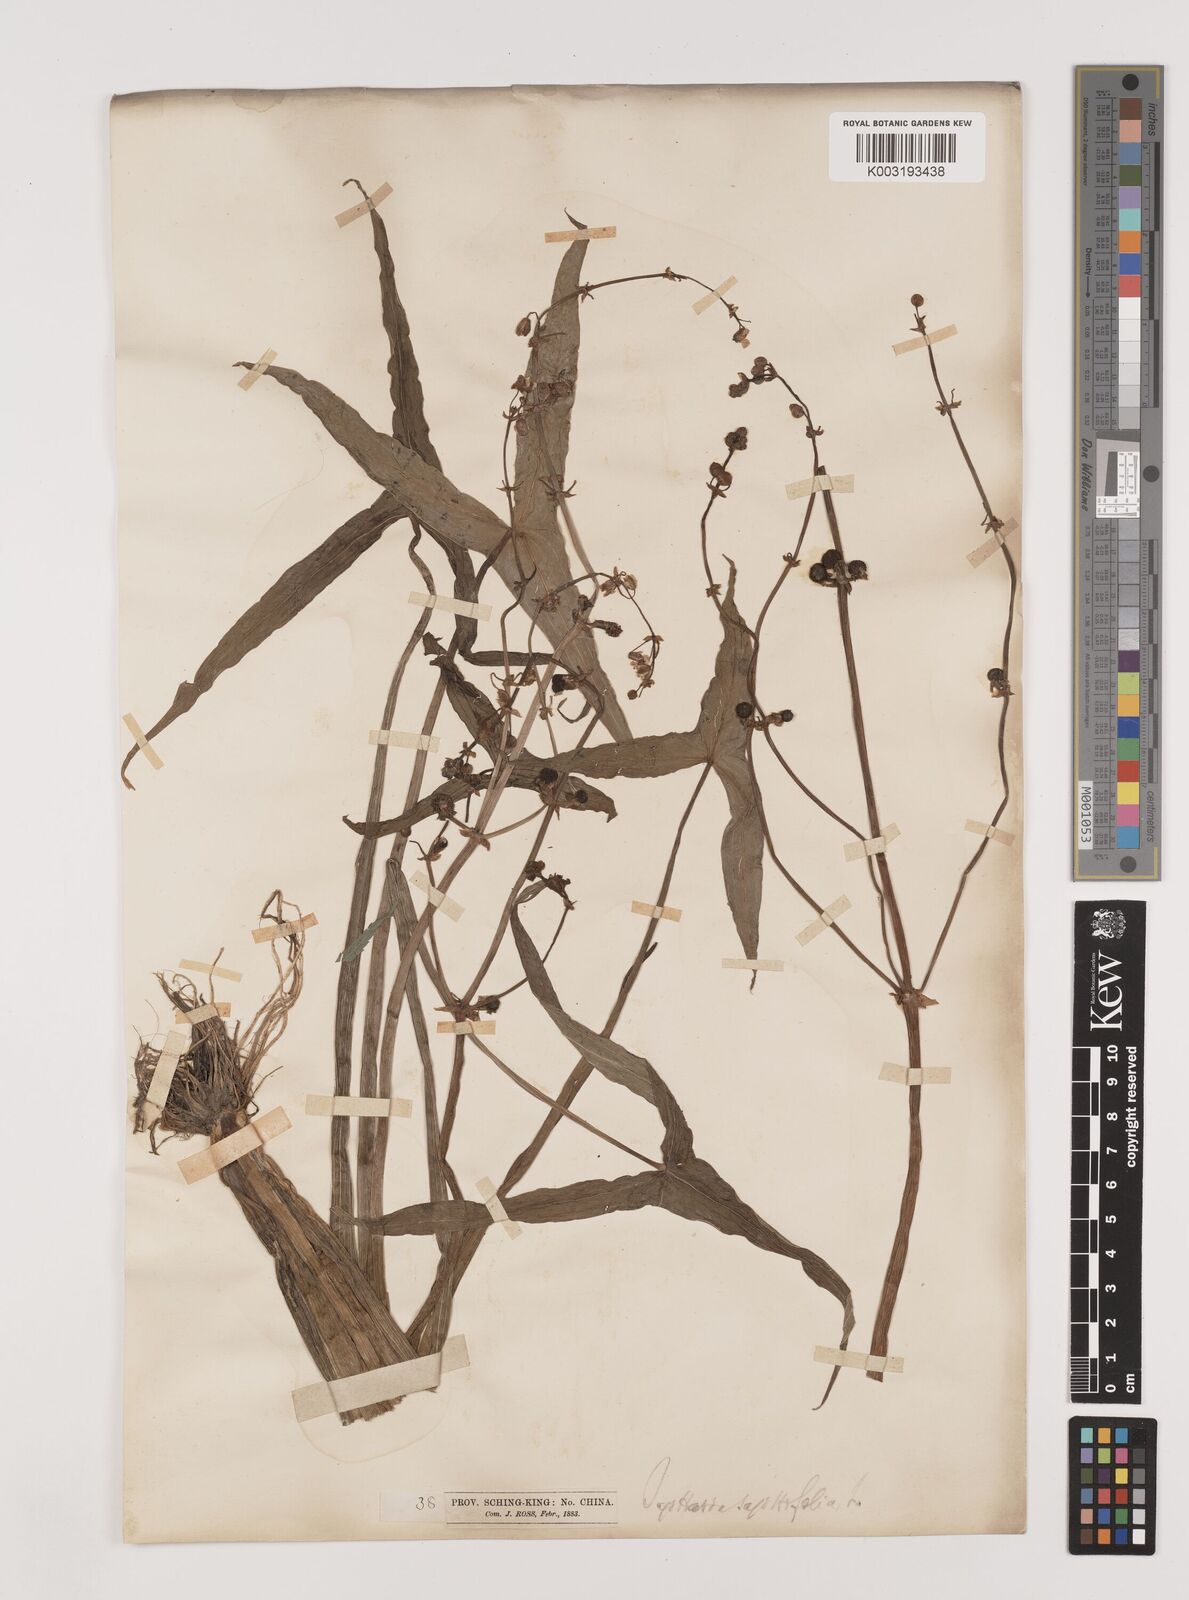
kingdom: Plantae
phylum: Tracheophyta
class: Liliopsida
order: Alismatales
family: Alismataceae
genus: Sagittaria
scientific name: Sagittaria trifolia
